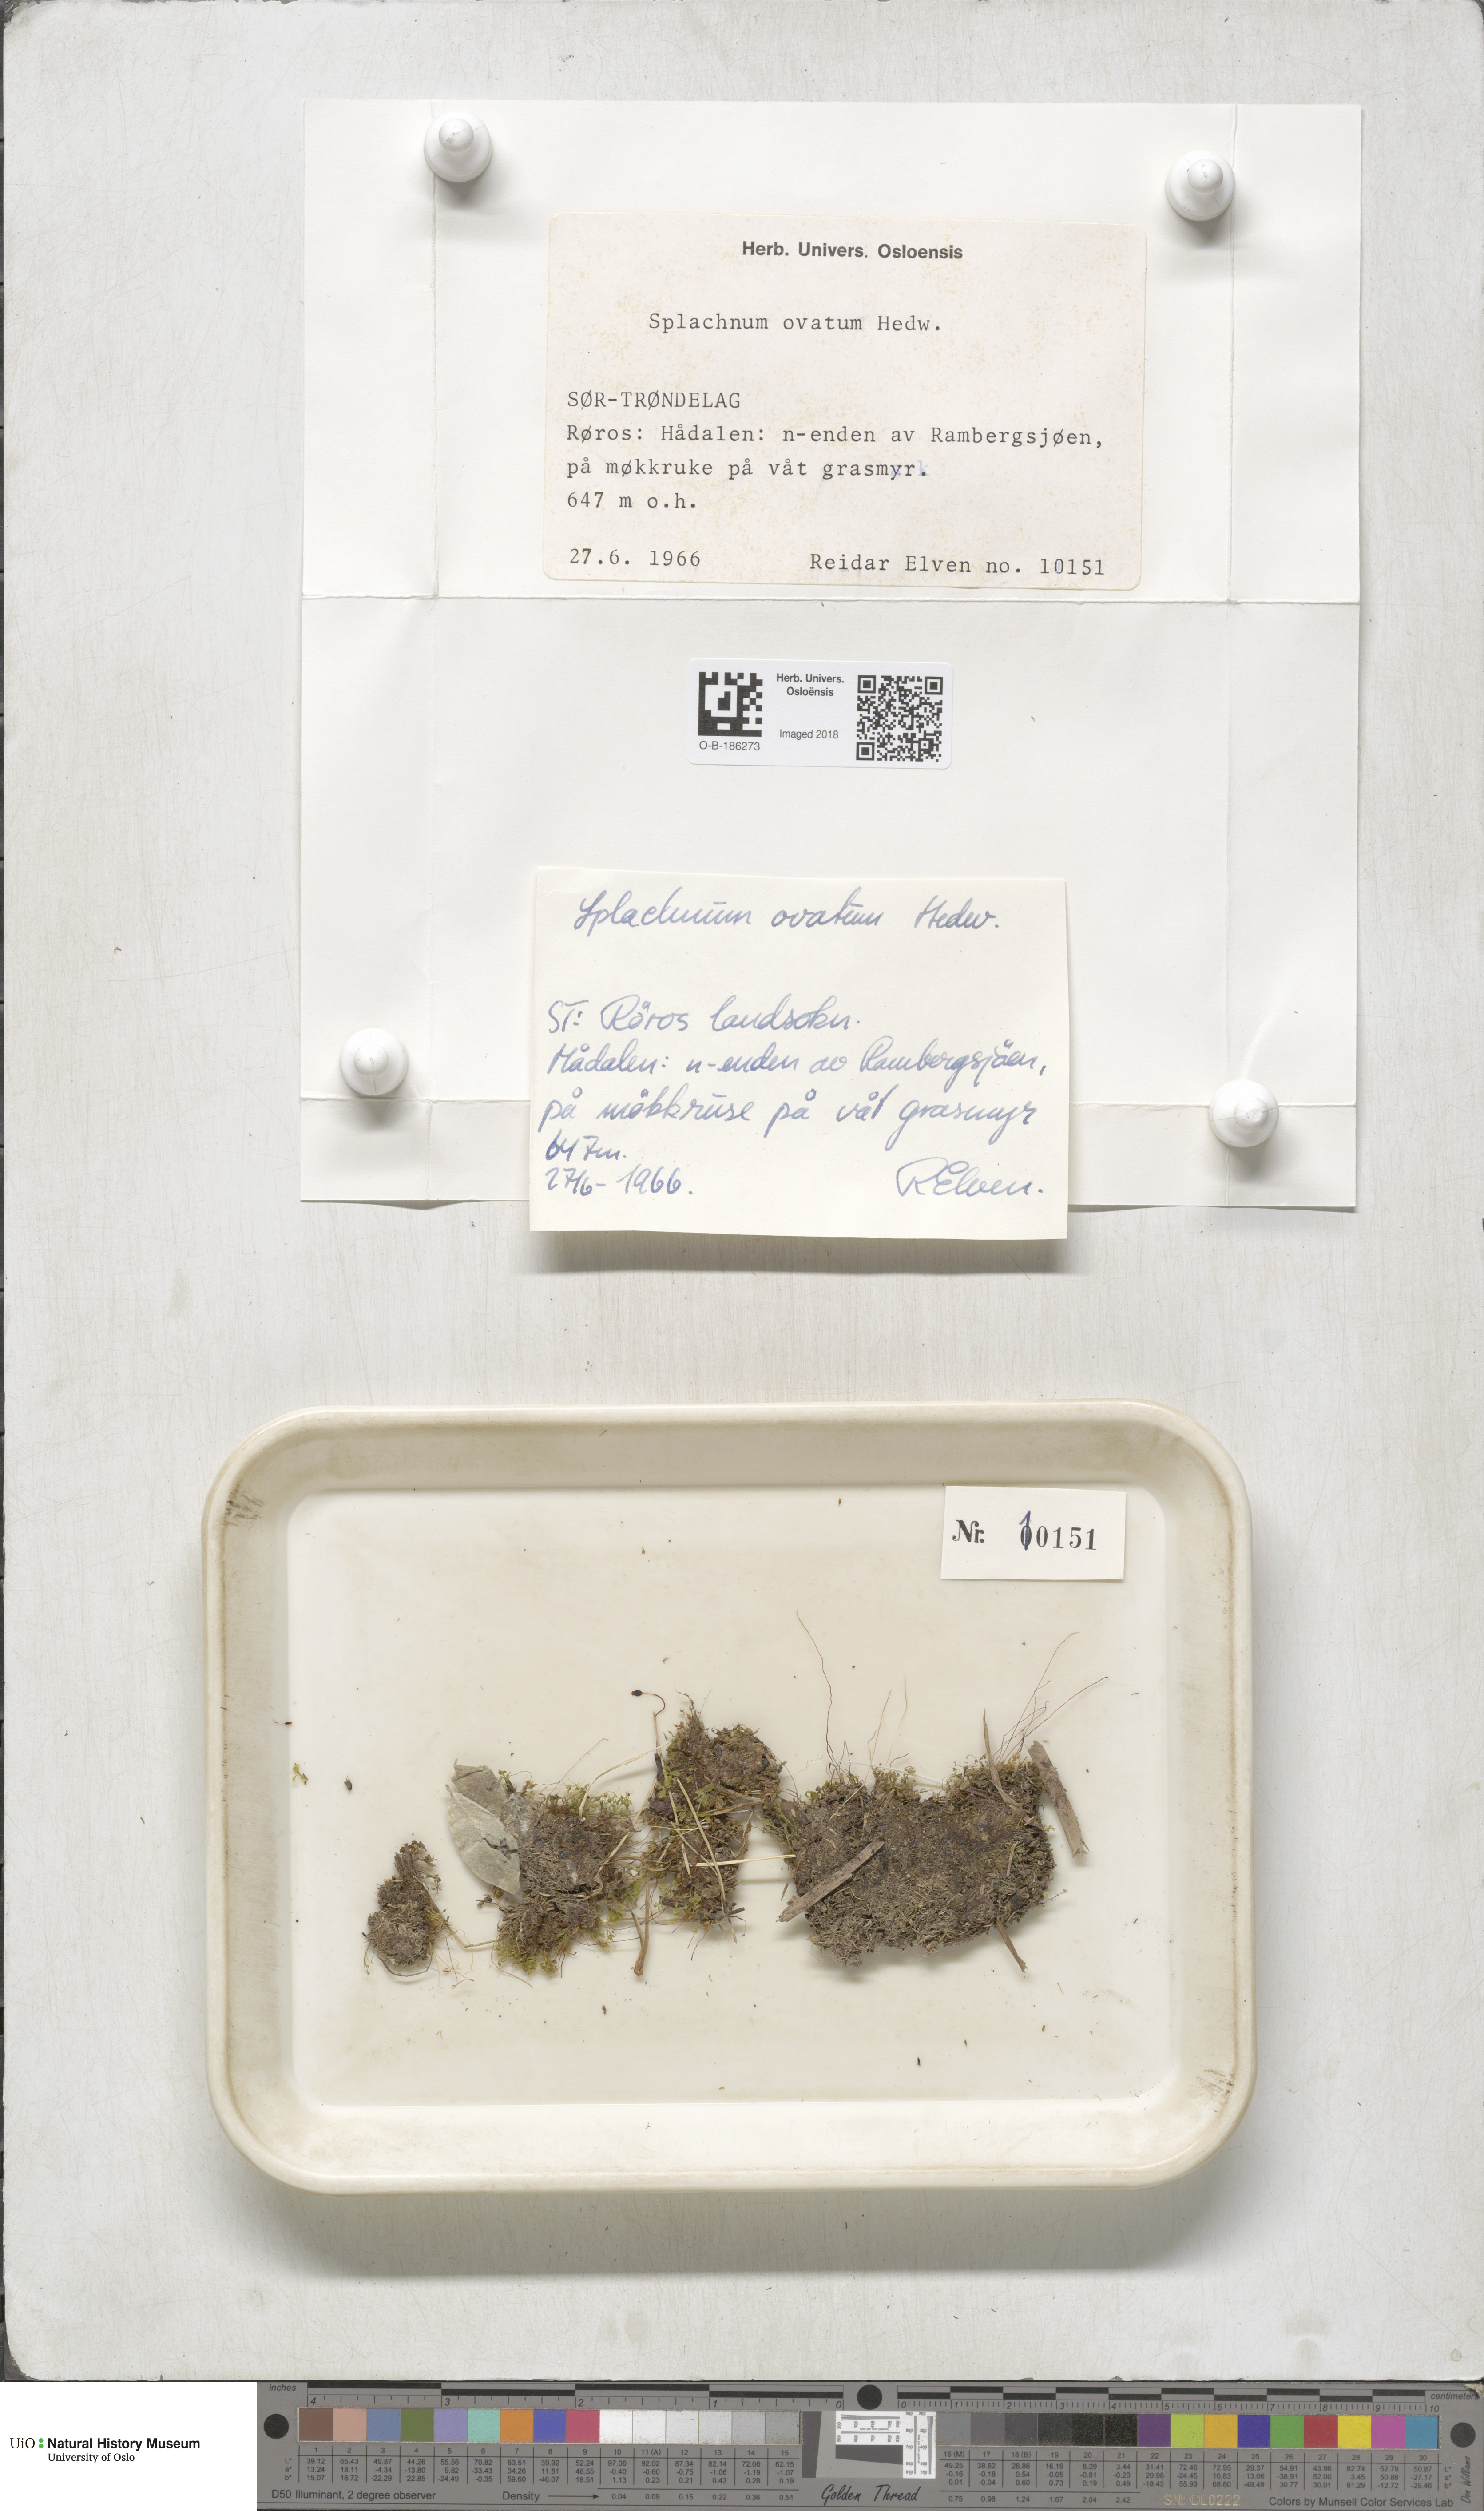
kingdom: Plantae
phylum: Bryophyta
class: Bryopsida
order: Splachnales
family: Splachnaceae
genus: Splachnum
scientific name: Splachnum sphaericum
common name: Round-fruited dung moss
